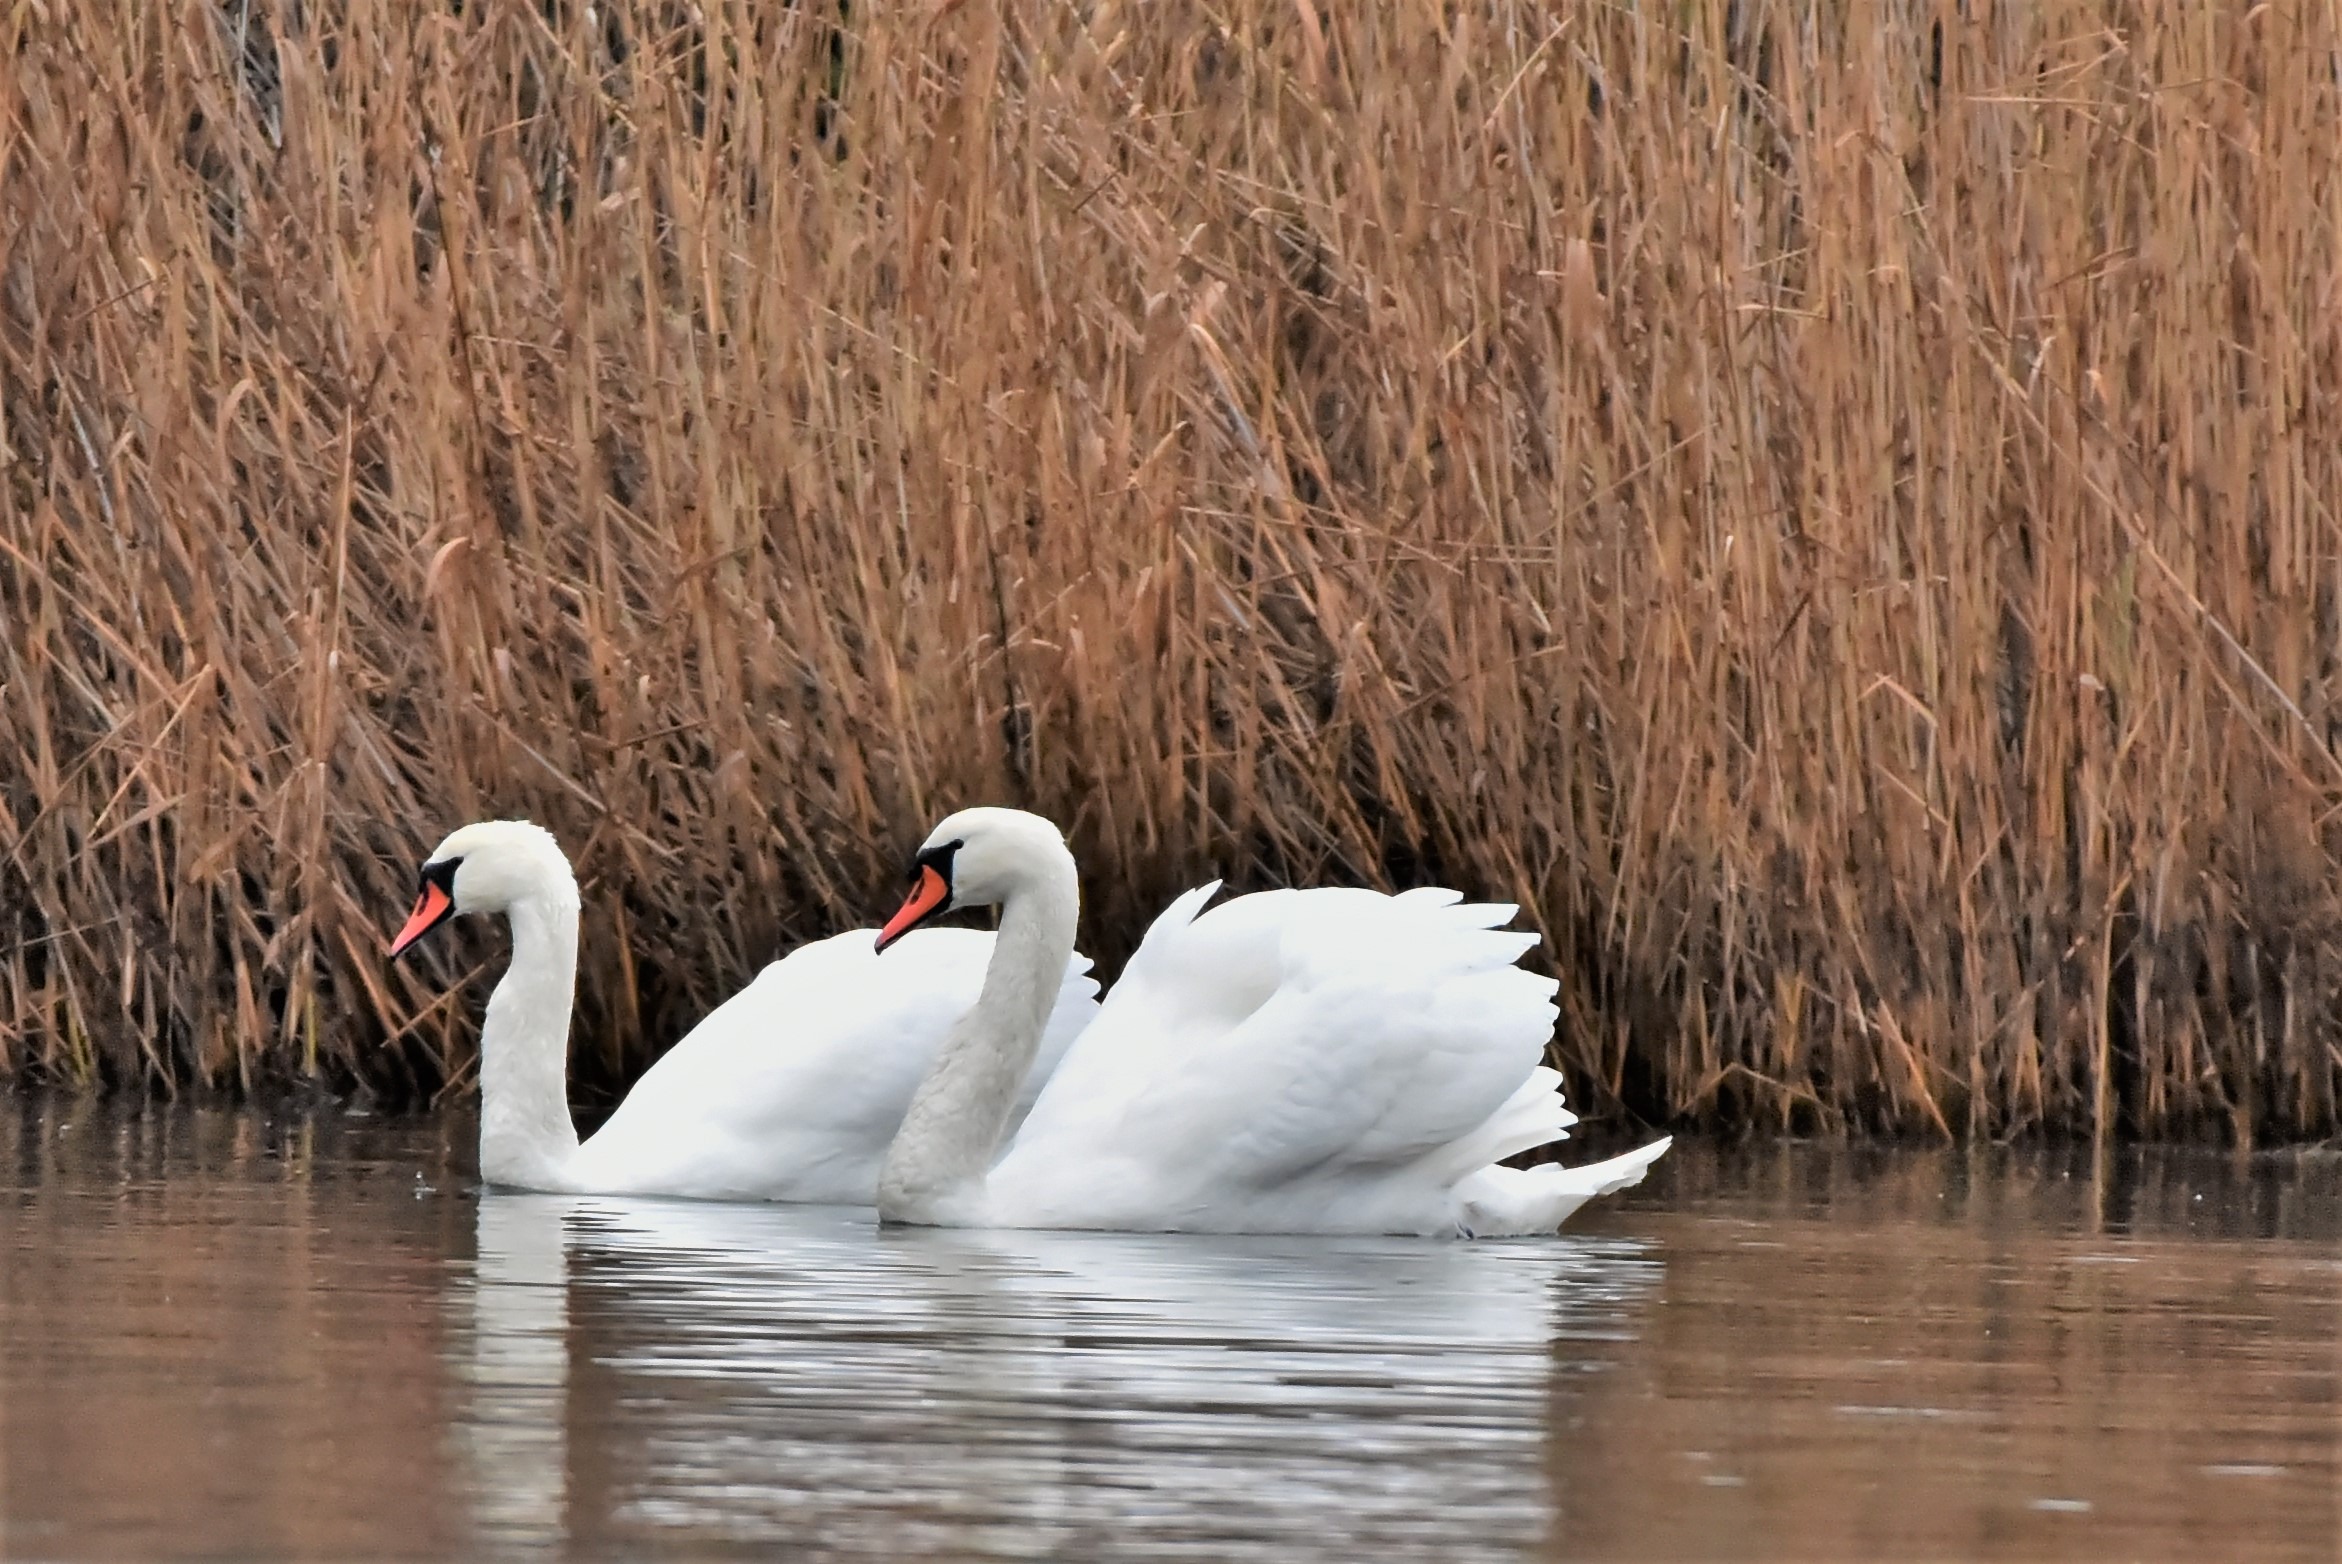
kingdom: Animalia
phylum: Chordata
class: Aves
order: Anseriformes
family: Anatidae
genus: Cygnus
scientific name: Cygnus olor
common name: Knopsvane
